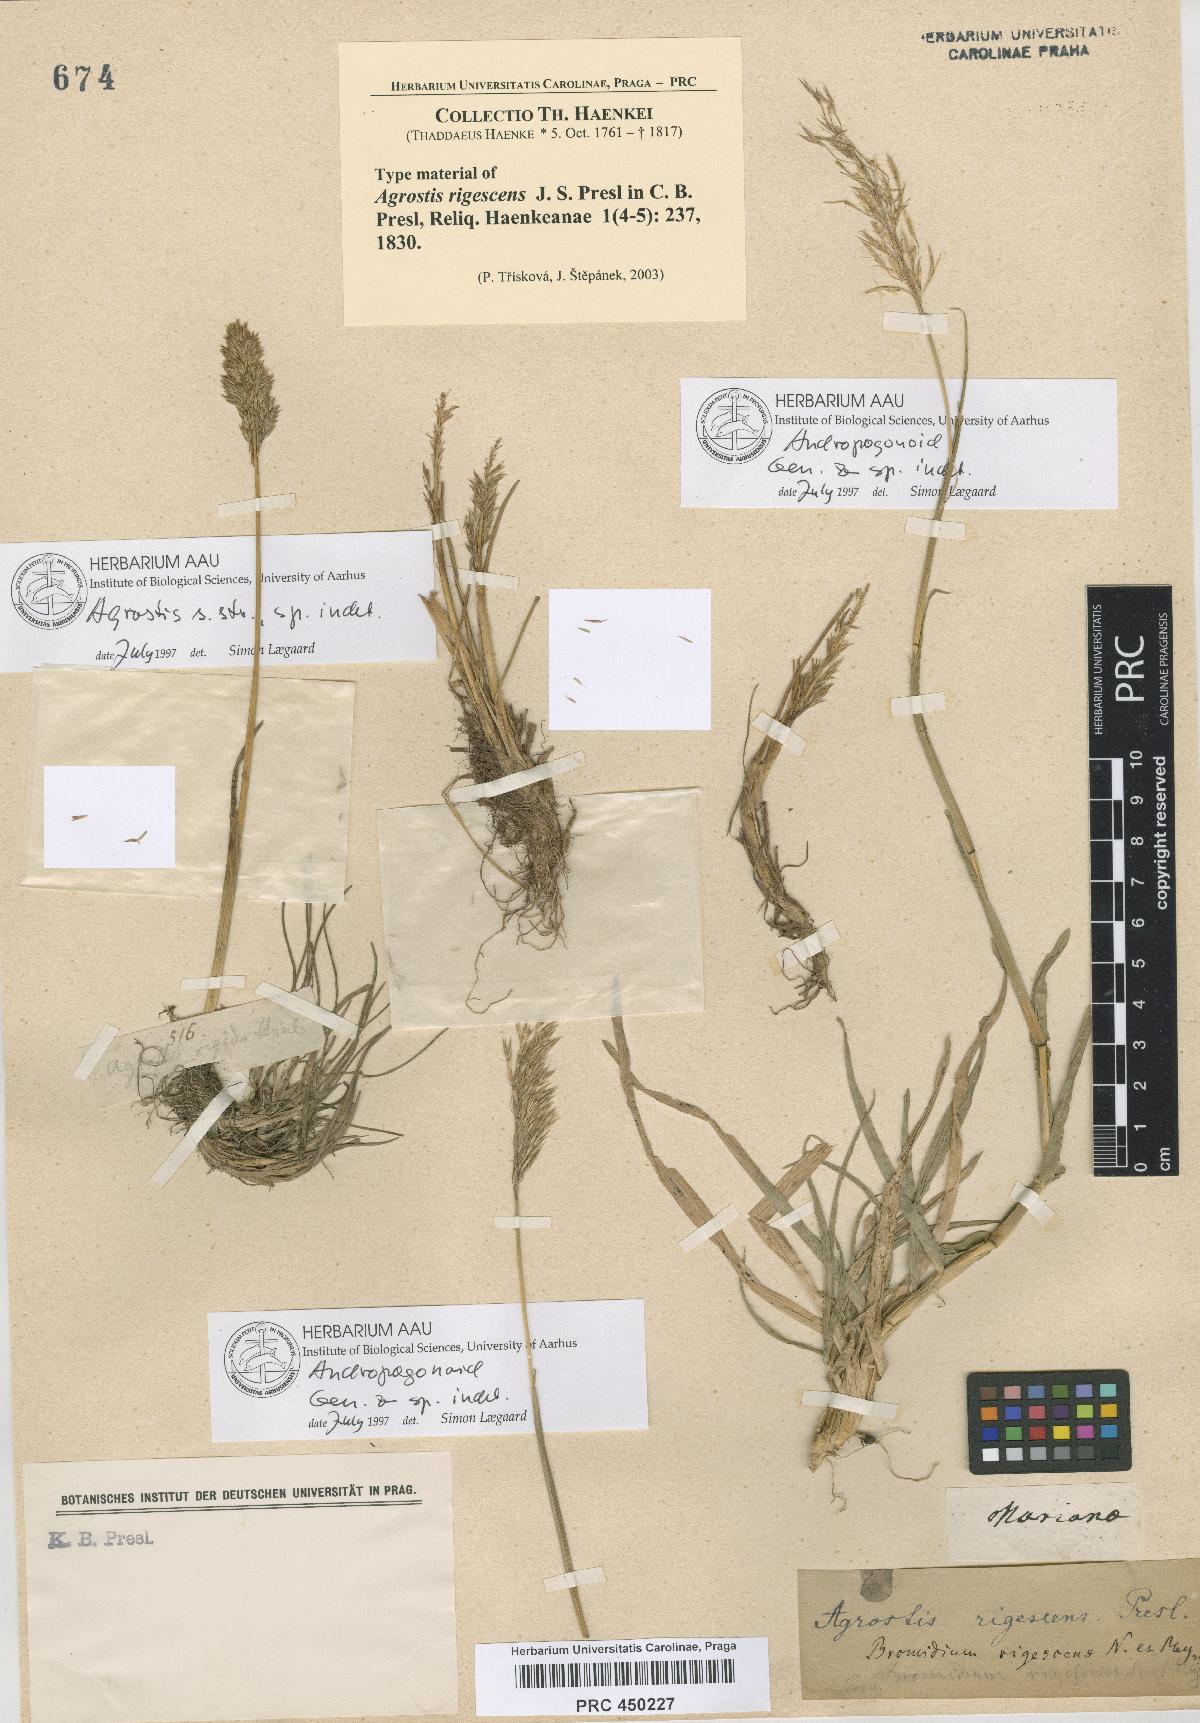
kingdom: Plantae
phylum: Tracheophyta
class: Liliopsida
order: Poales
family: Poaceae
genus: Cinnagrostis
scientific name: Cinnagrostis rigescens
